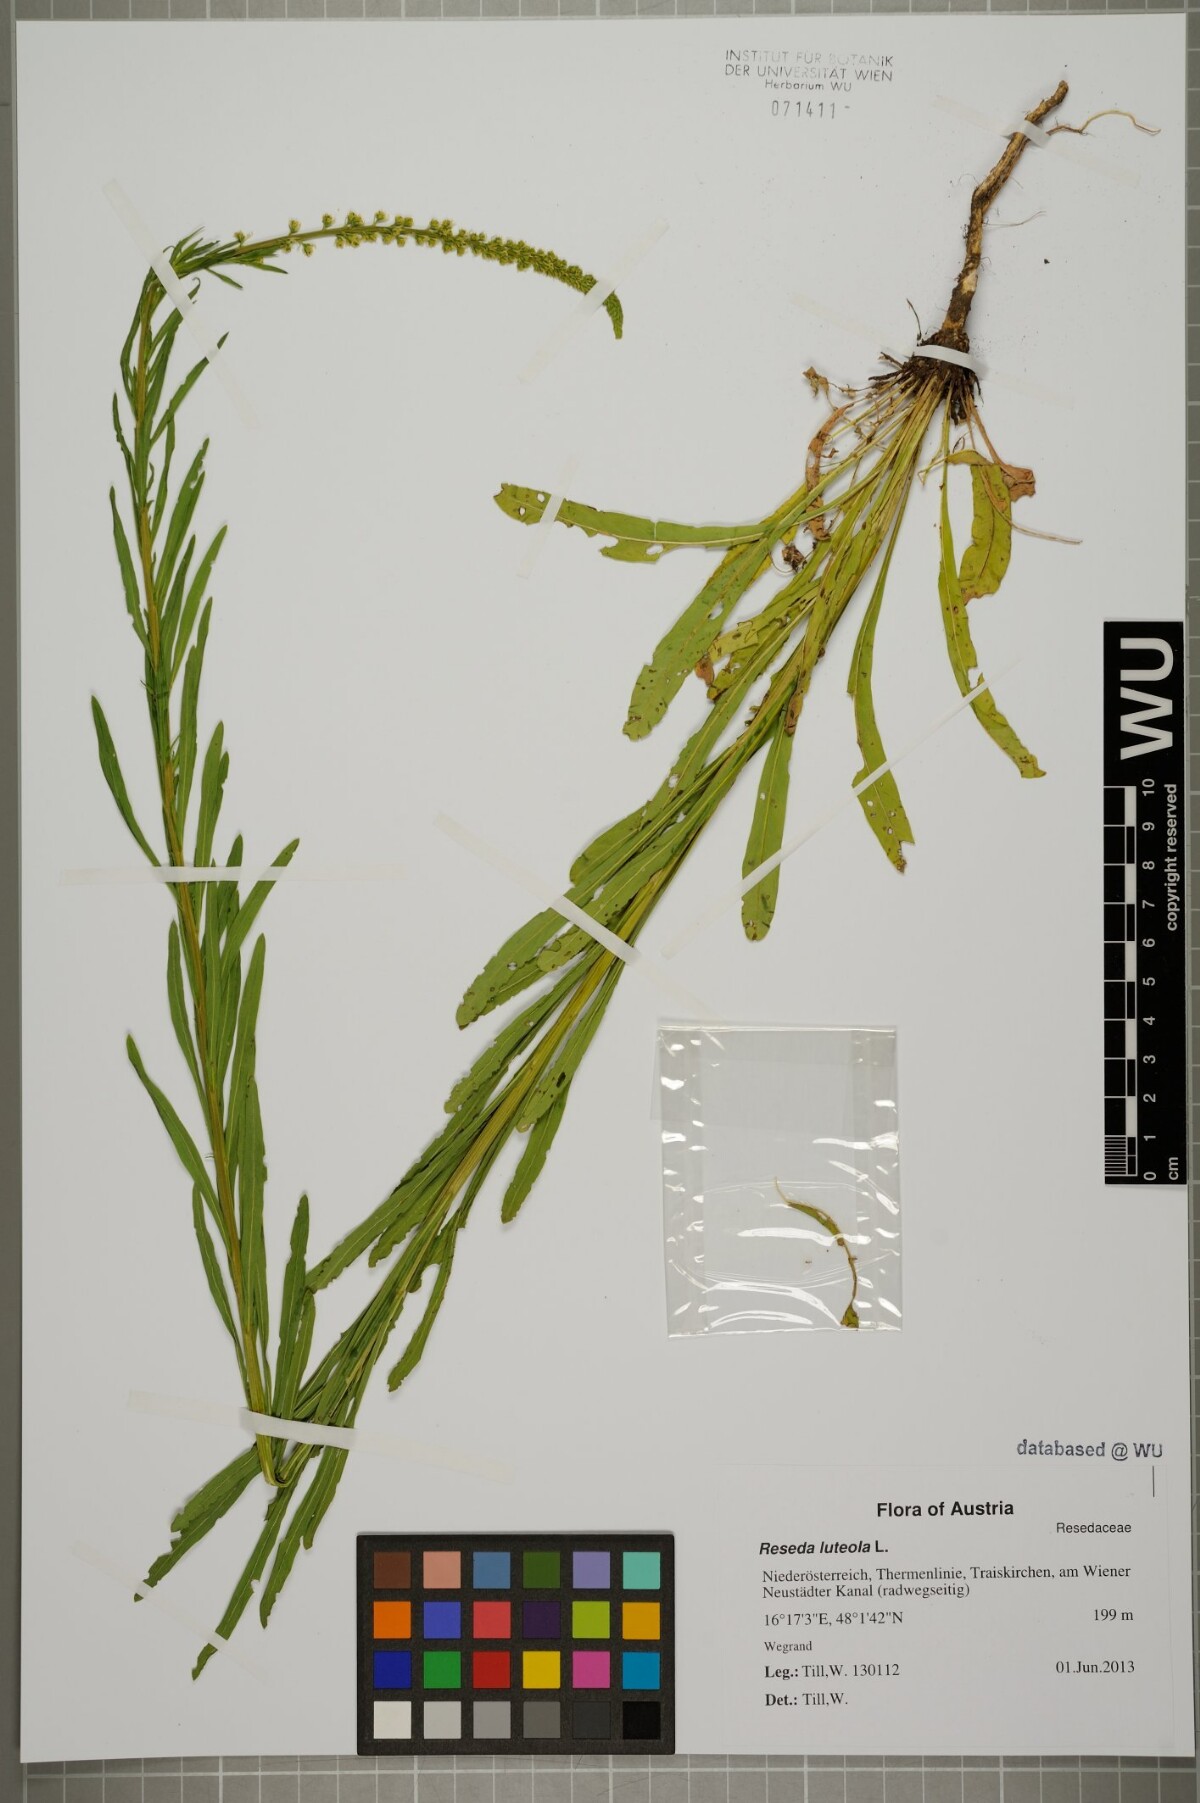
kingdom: Plantae
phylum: Tracheophyta
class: Magnoliopsida
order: Brassicales
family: Resedaceae
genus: Reseda
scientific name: Reseda luteola
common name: Weld
